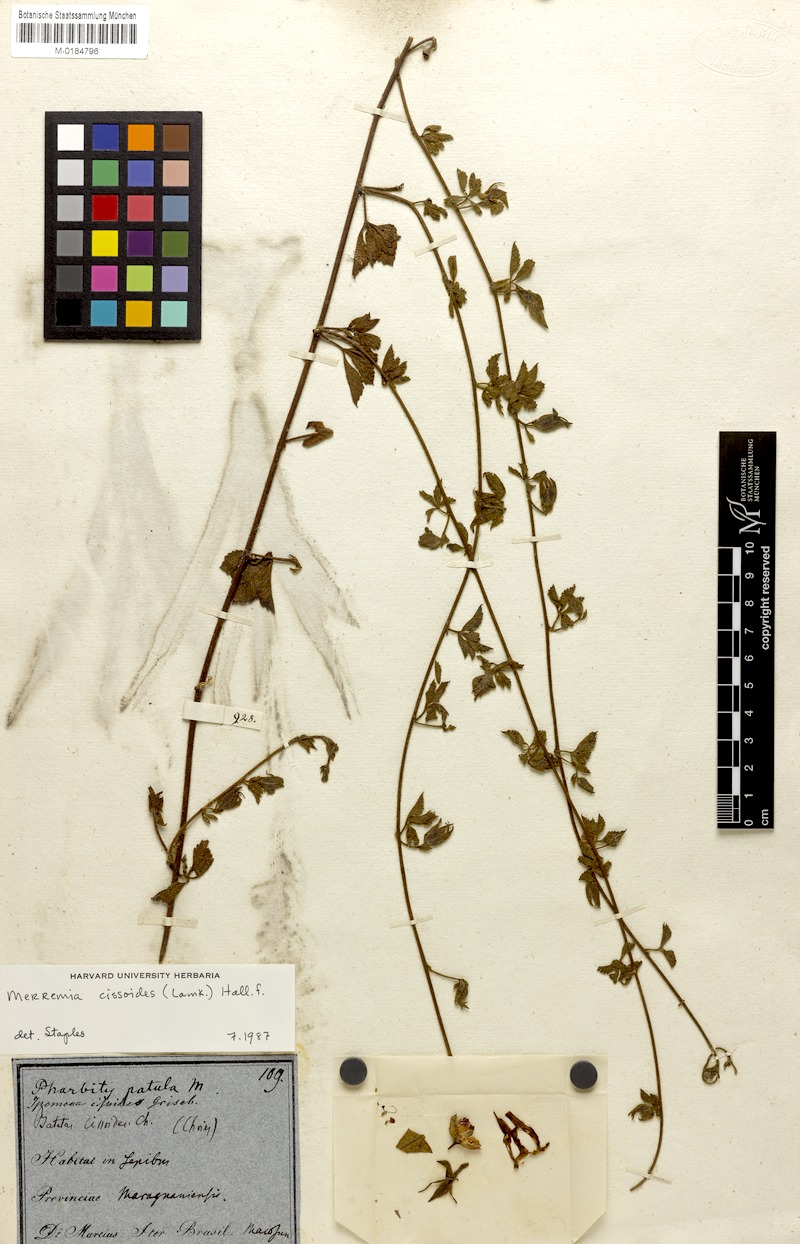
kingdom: Plantae
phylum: Tracheophyta
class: Magnoliopsida
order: Solanales
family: Convolvulaceae
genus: Distimake
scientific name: Distimake cissoides
